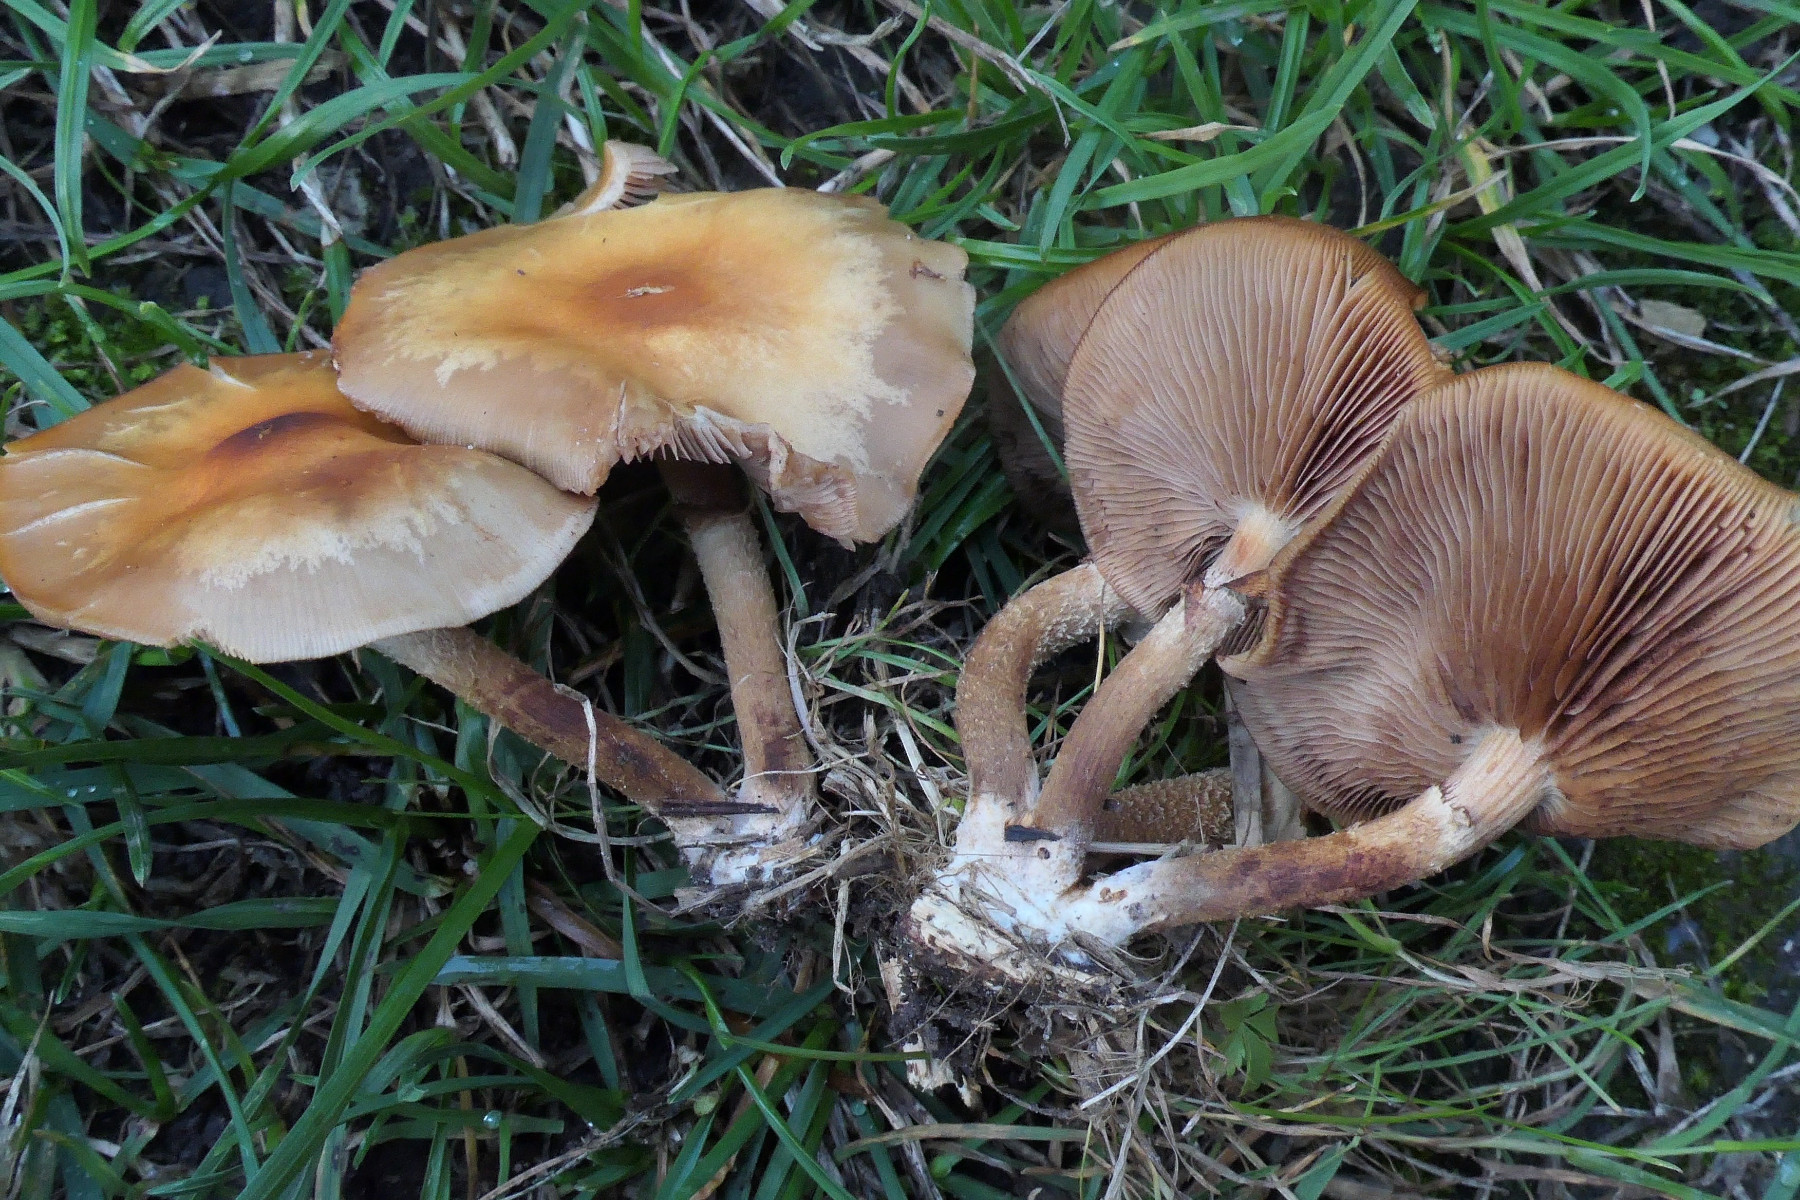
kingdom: Fungi
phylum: Basidiomycota
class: Agaricomycetes
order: Agaricales
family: Strophariaceae
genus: Kuehneromyces
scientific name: Kuehneromyces mutabilis
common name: foranderlig skælhat
